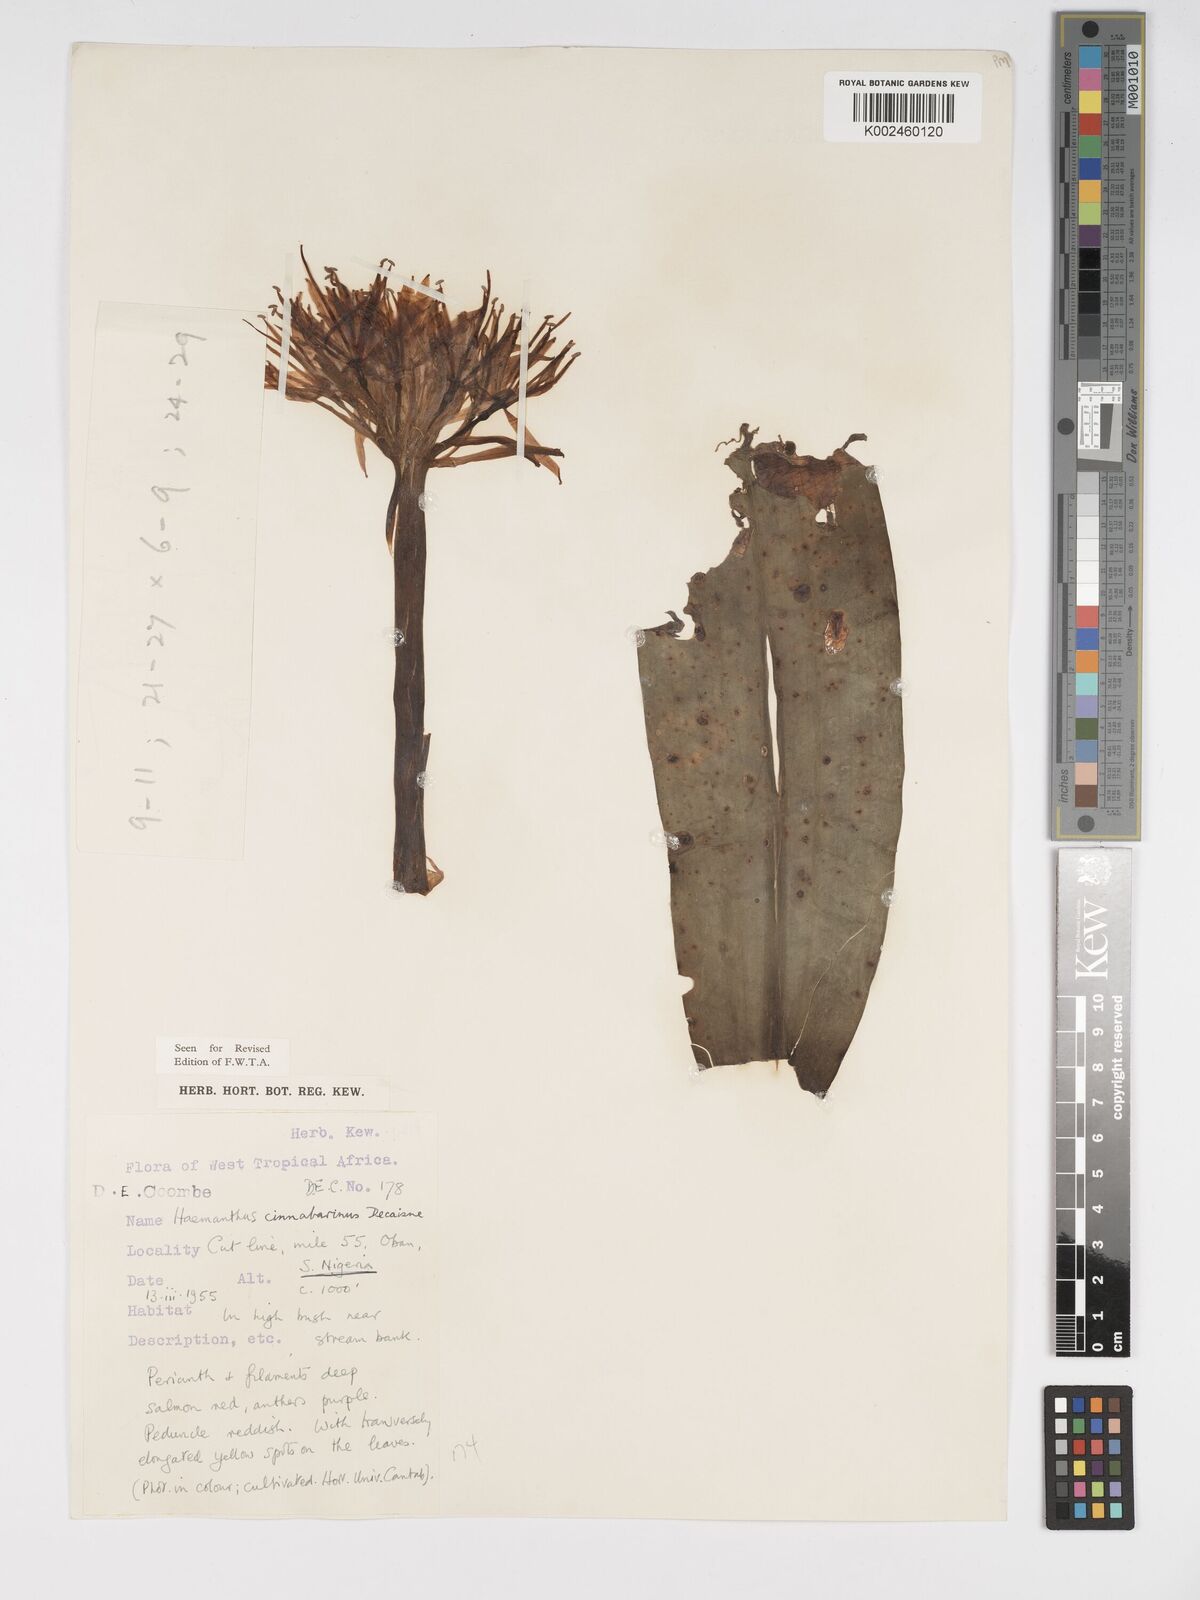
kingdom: Plantae
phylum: Tracheophyta
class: Liliopsida
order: Asparagales
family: Amaryllidaceae
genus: Scadoxus
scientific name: Scadoxus cinnabarinus
